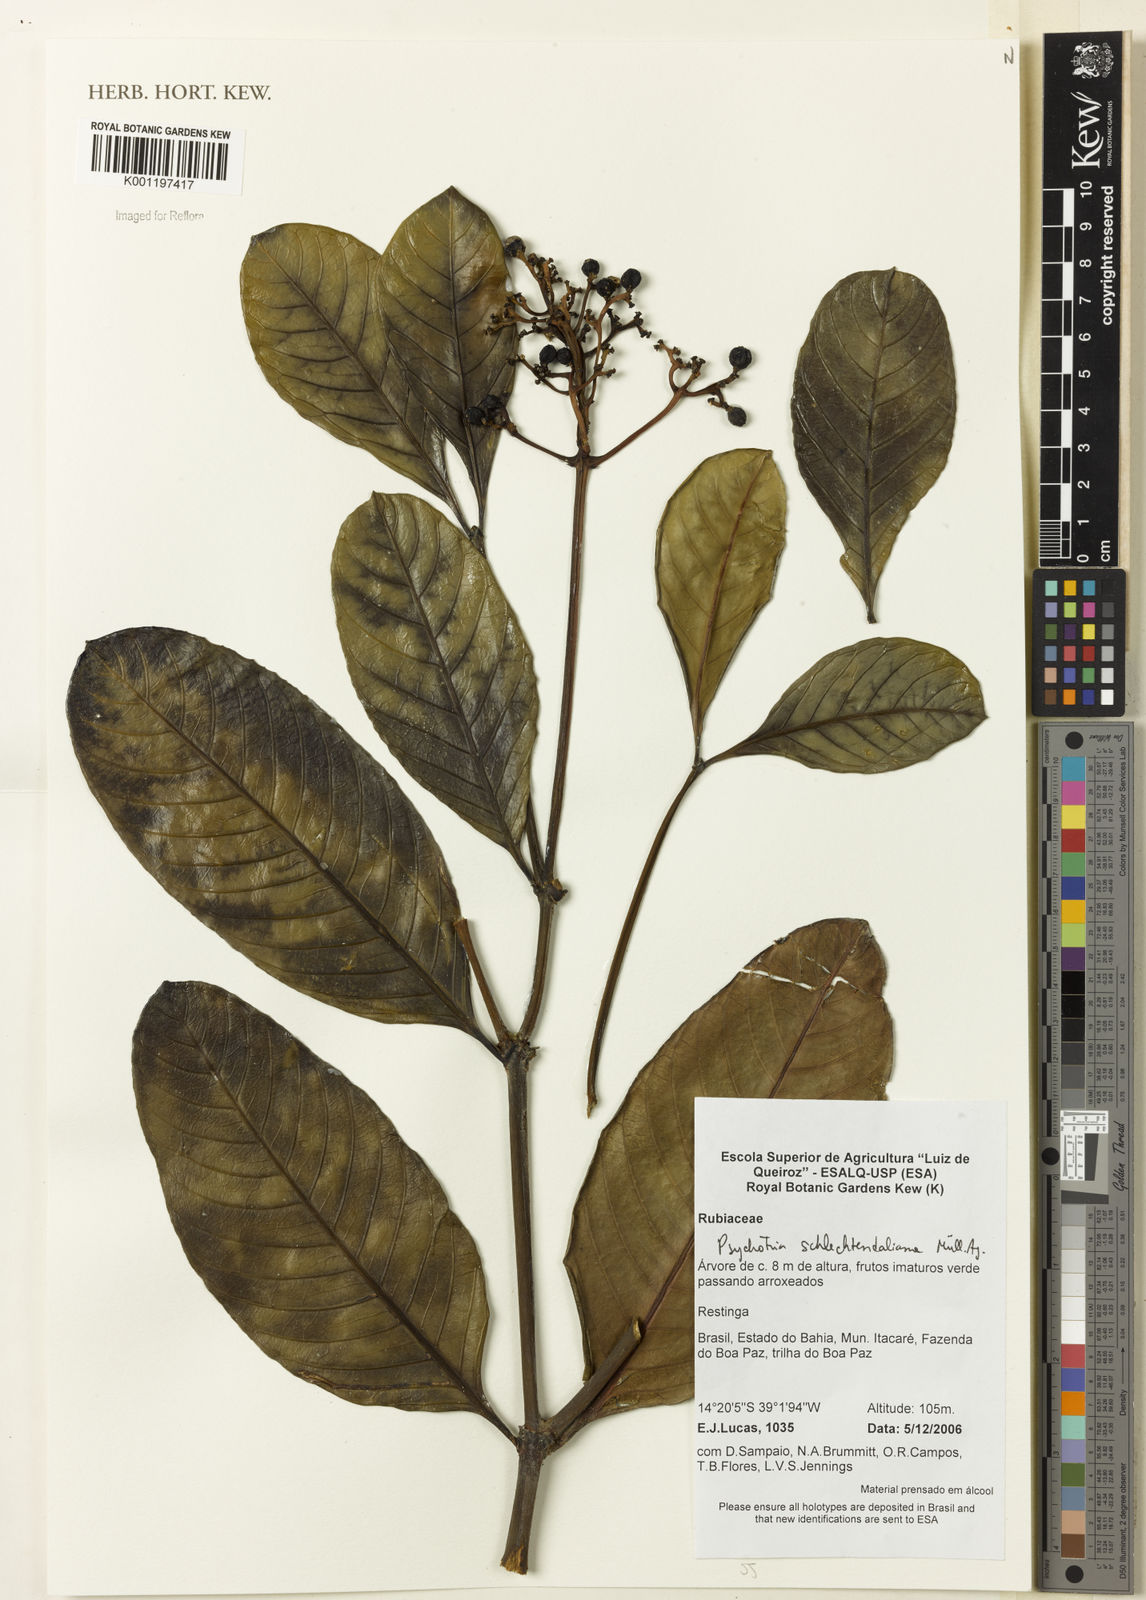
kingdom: Plantae
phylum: Tracheophyta
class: Magnoliopsida
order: Gentianales
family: Rubiaceae
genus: Psychotria
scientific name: Psychotria
